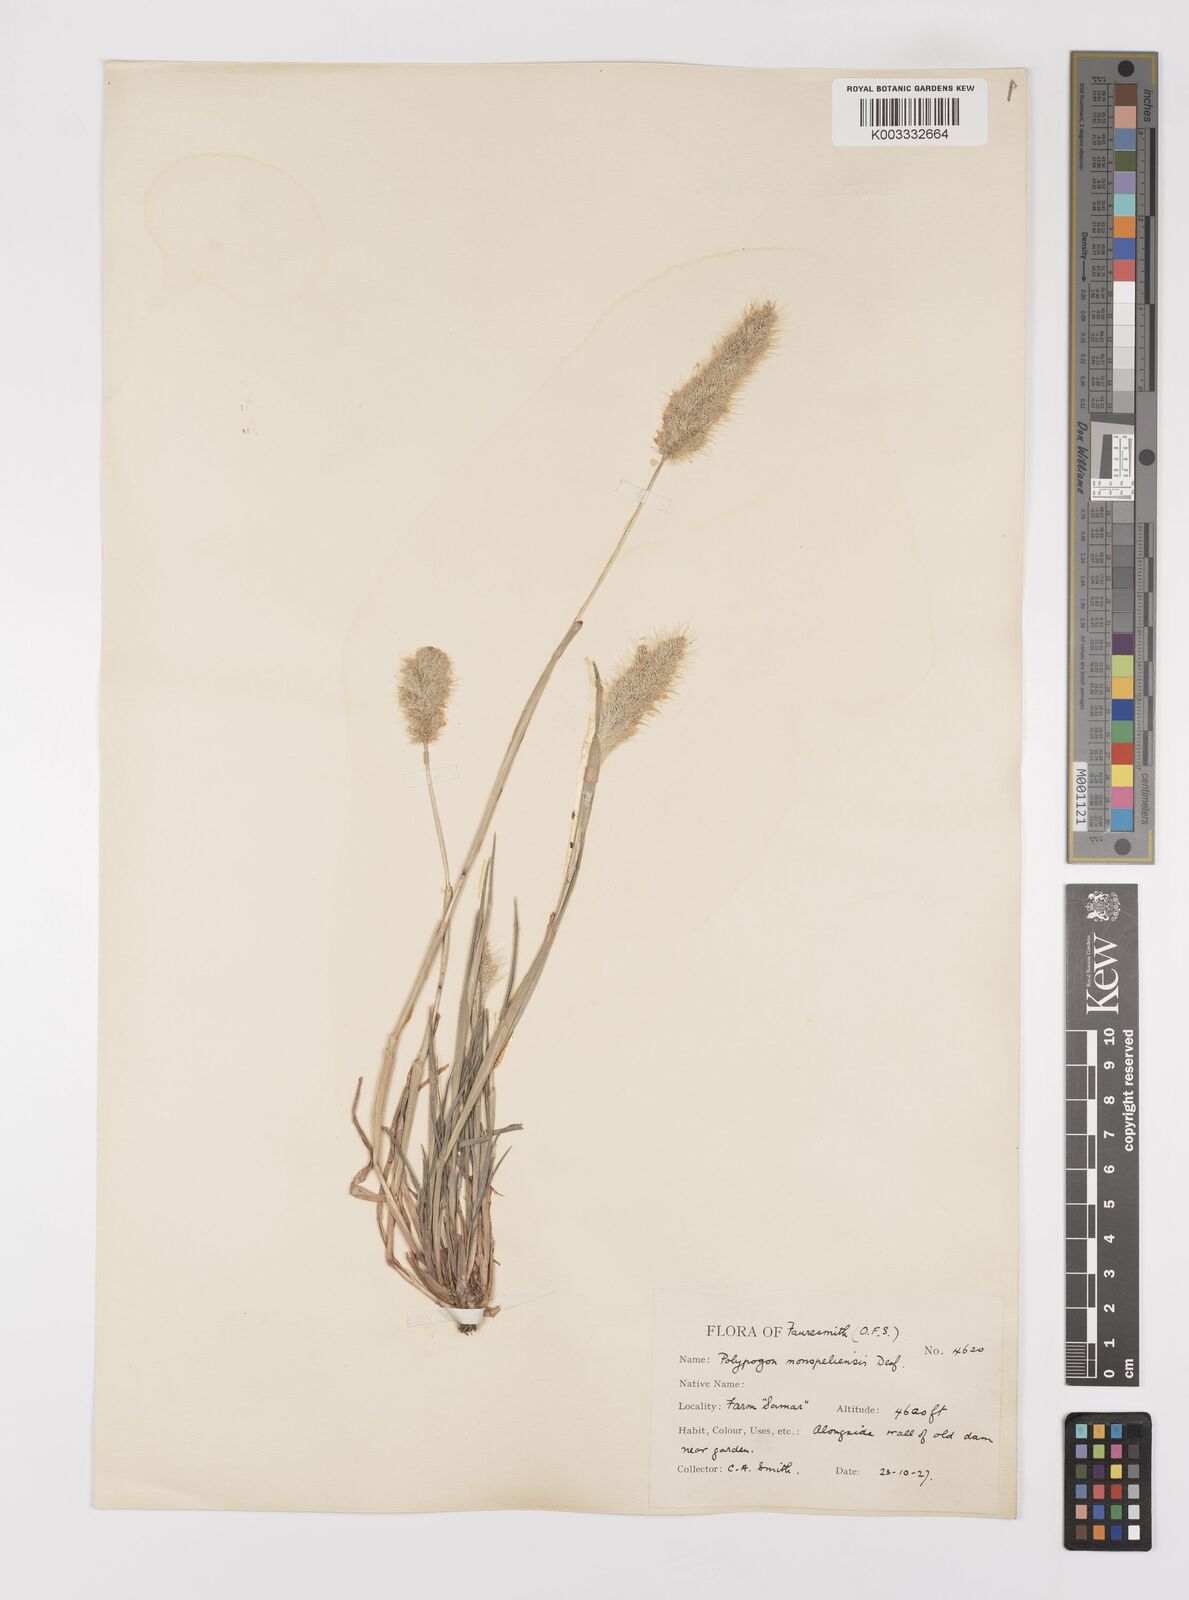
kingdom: Plantae
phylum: Tracheophyta
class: Liliopsida
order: Poales
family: Poaceae
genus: Polypogon
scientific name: Polypogon monspeliensis
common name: Annual rabbitsfoot grass
